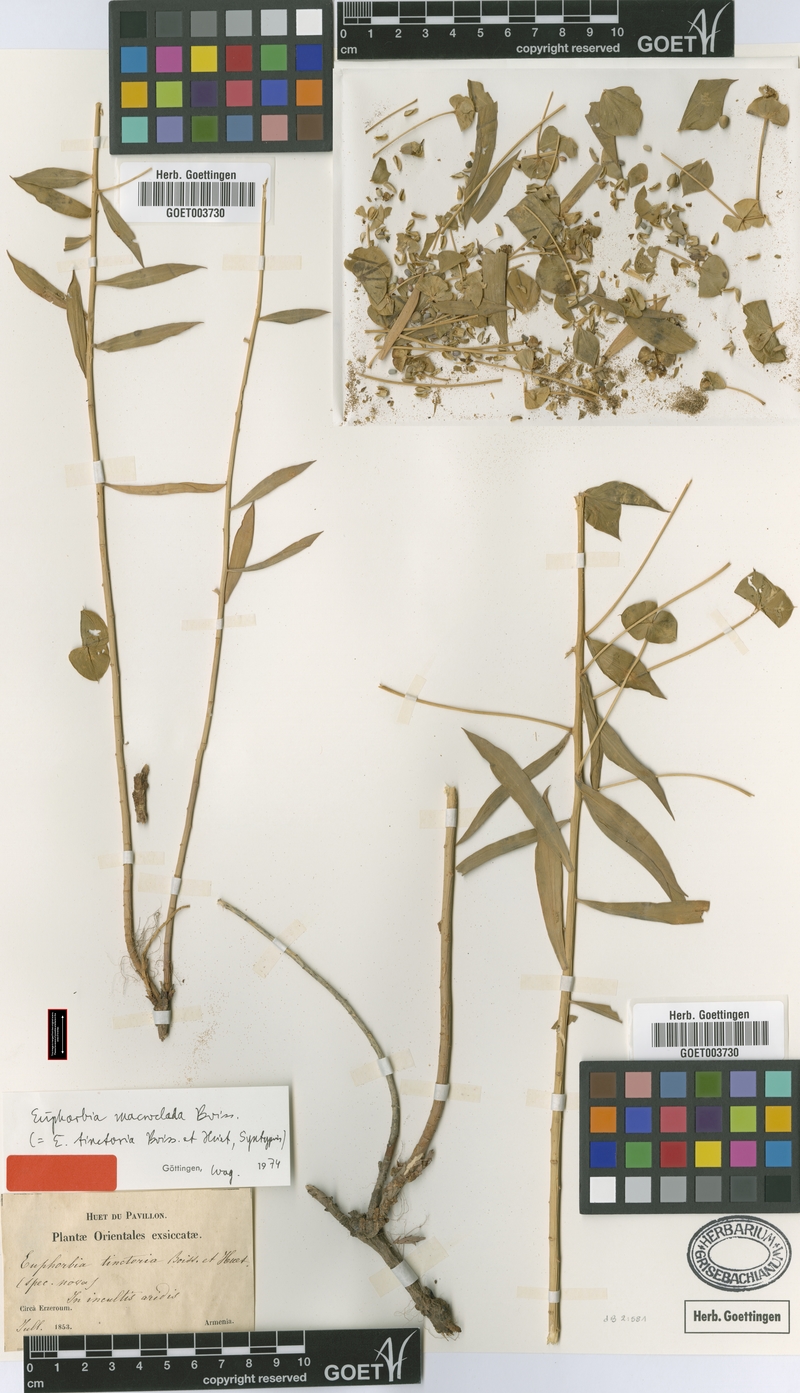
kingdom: Plantae
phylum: Tracheophyta
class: Magnoliopsida
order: Malpighiales
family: Euphorbiaceae
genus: Euphorbia
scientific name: Euphorbia macroclada
